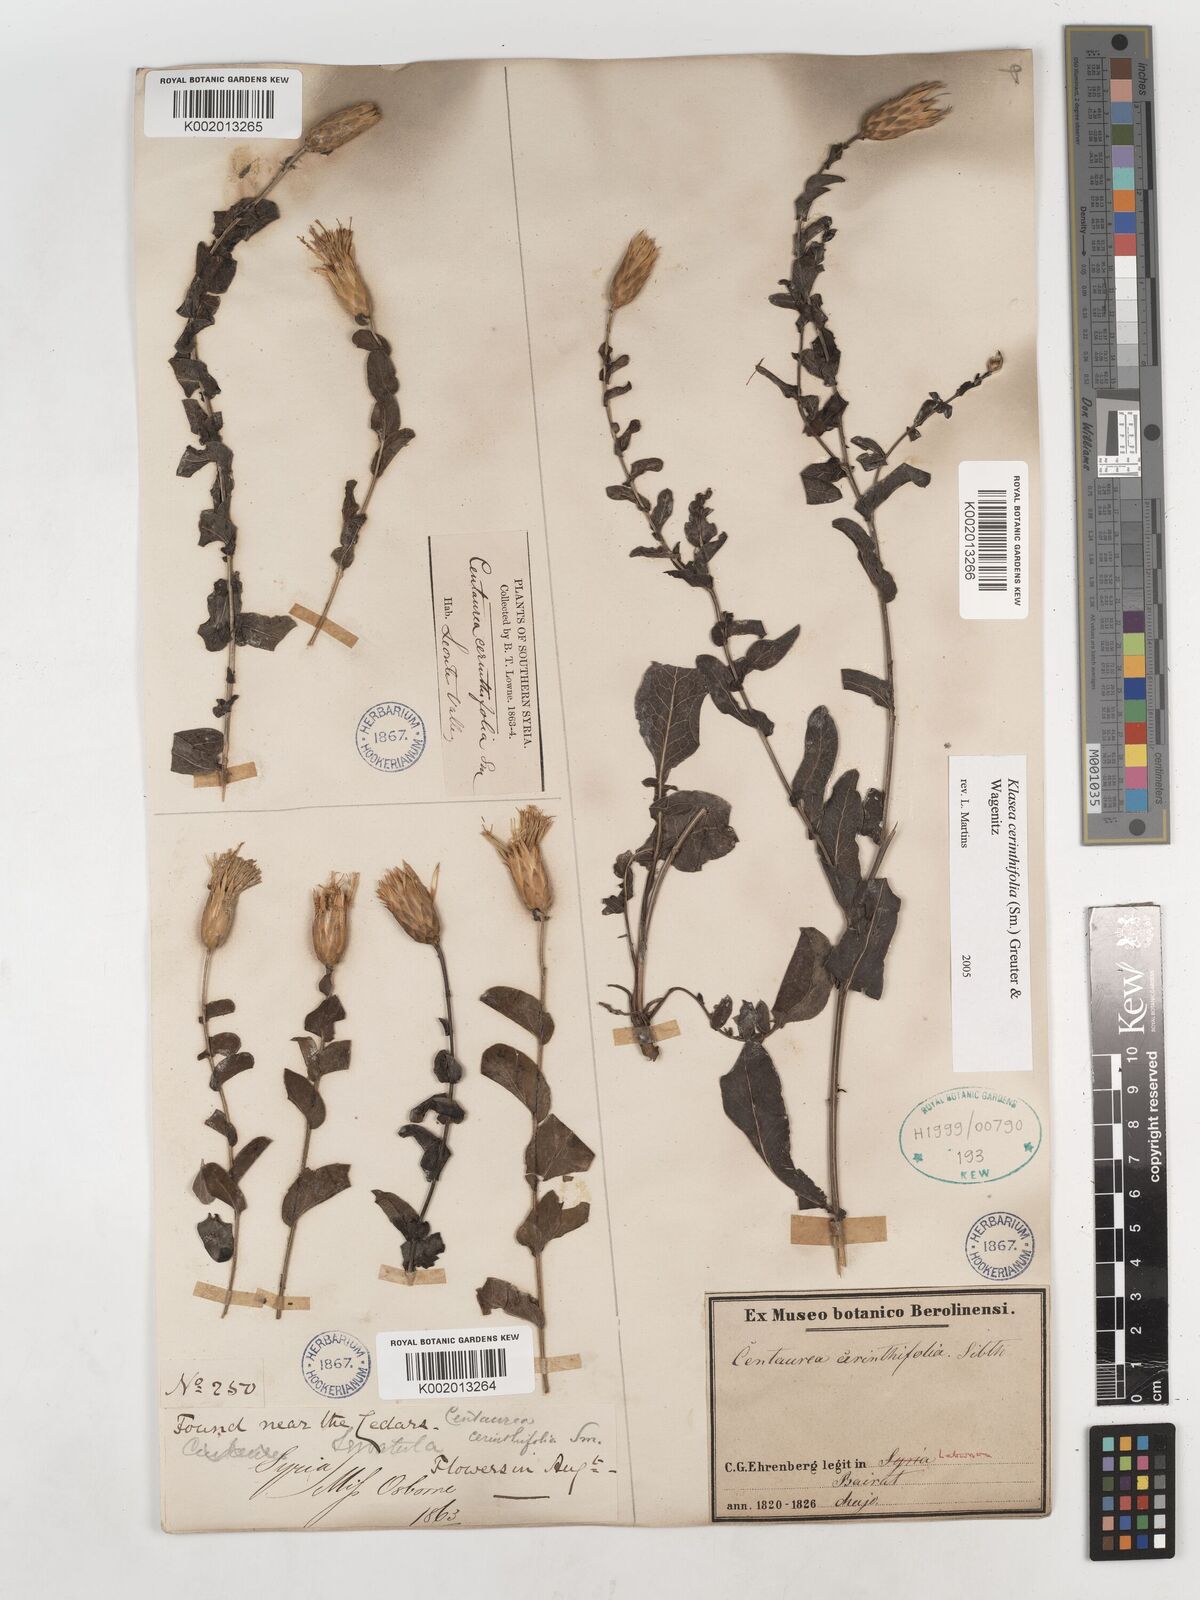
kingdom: Plantae
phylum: Tracheophyta
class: Magnoliopsida
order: Asterales
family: Asteraceae
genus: Klasea
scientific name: Klasea cerinthifolia
